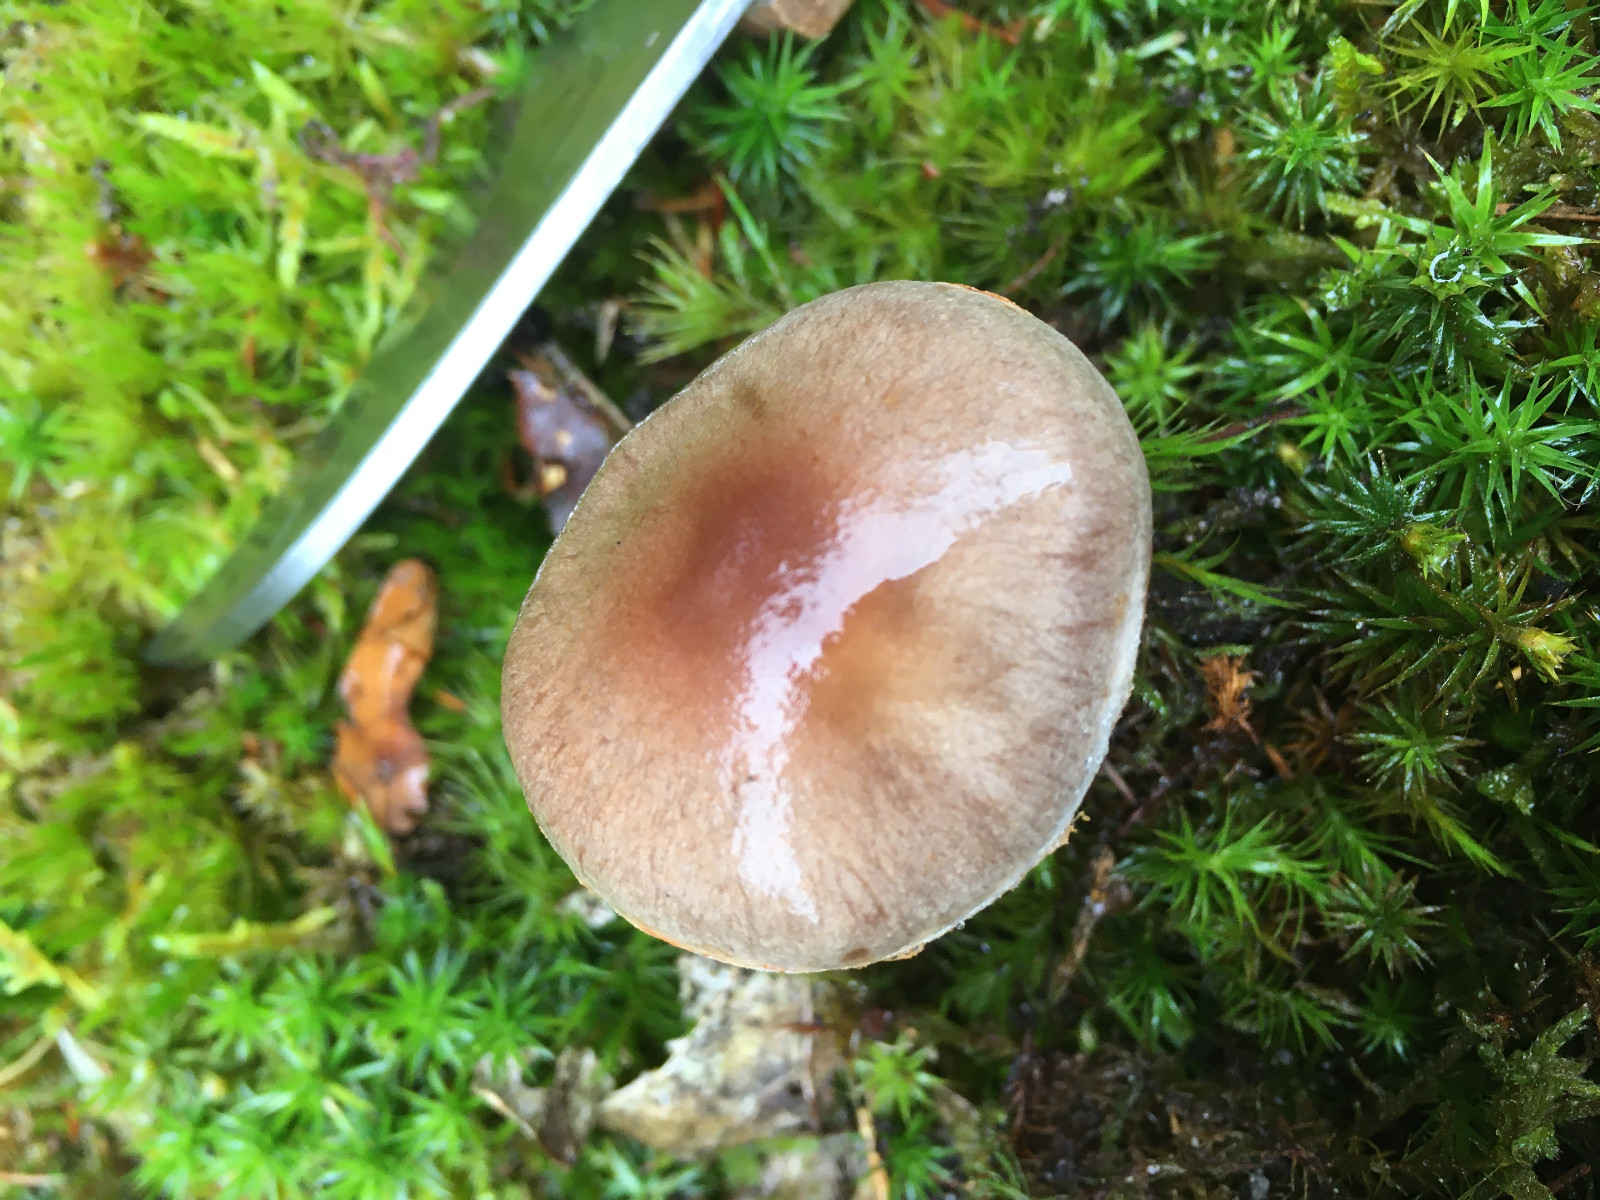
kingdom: Fungi
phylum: Basidiomycota
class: Agaricomycetes
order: Agaricales
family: Cortinariaceae
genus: Cortinarius
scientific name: Cortinarius
